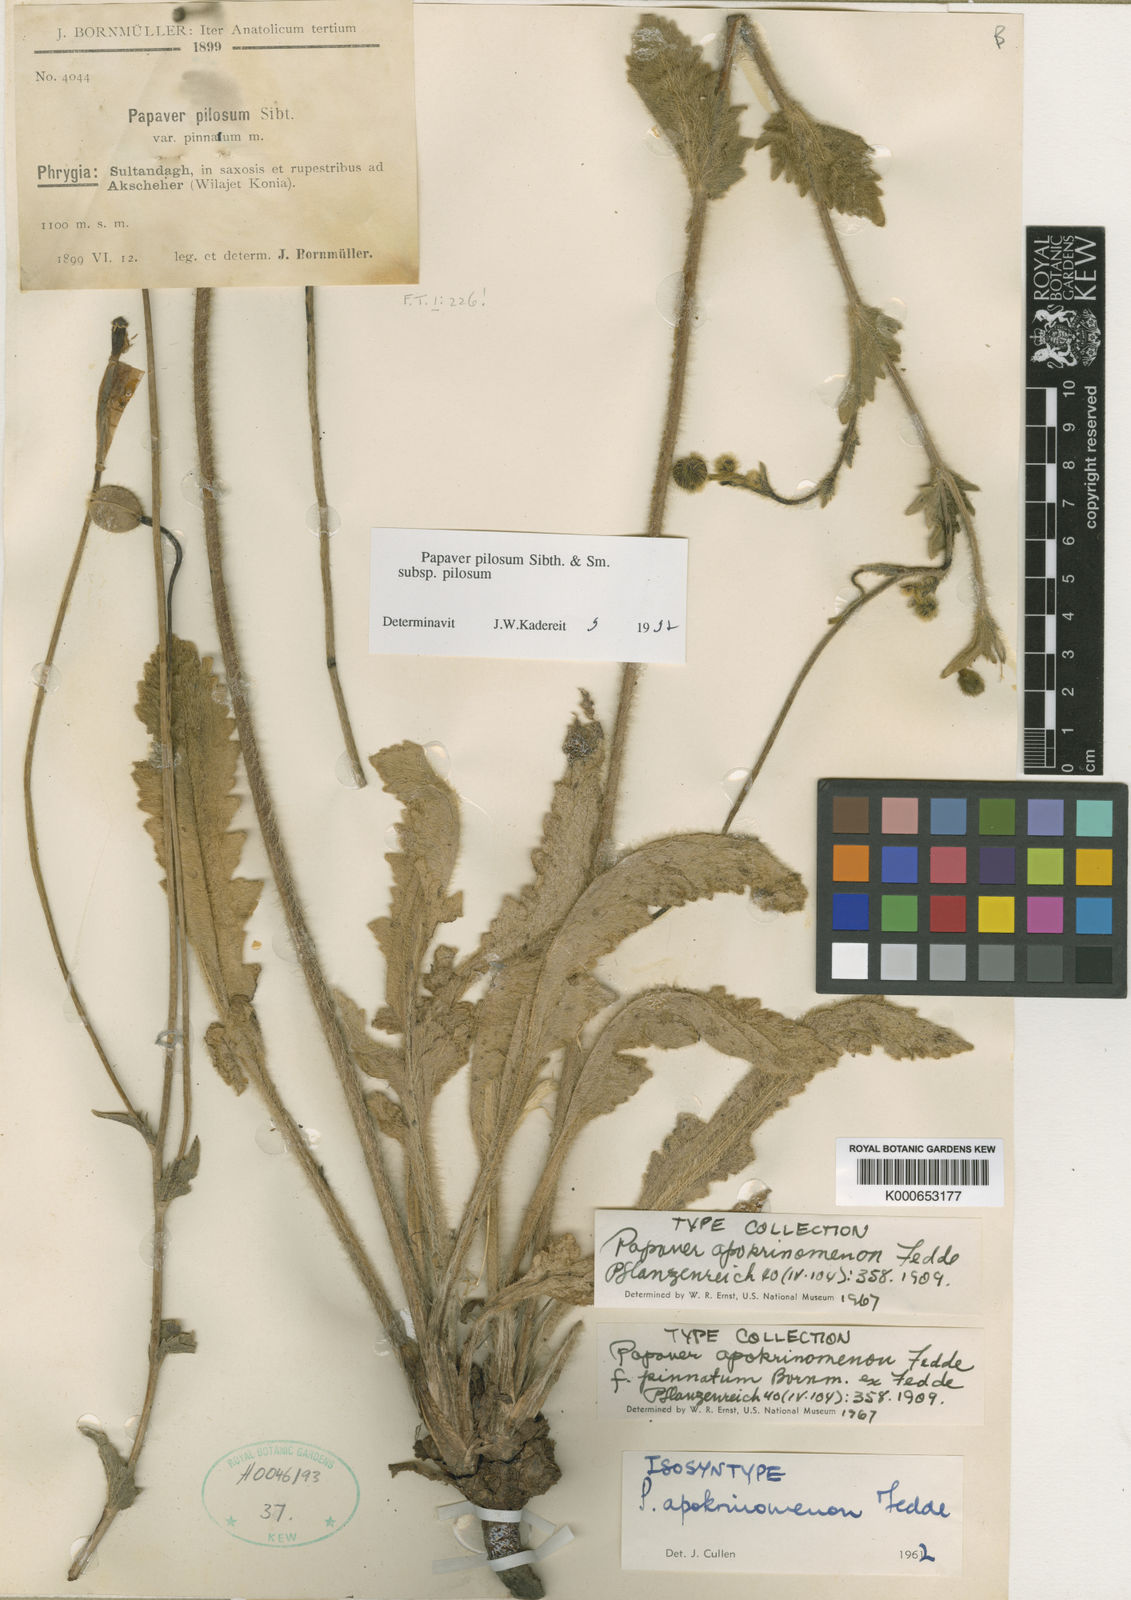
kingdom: Plantae
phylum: Tracheophyta
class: Magnoliopsida
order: Ranunculales
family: Papaveraceae
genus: Papaver
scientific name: Papaver pilosum
